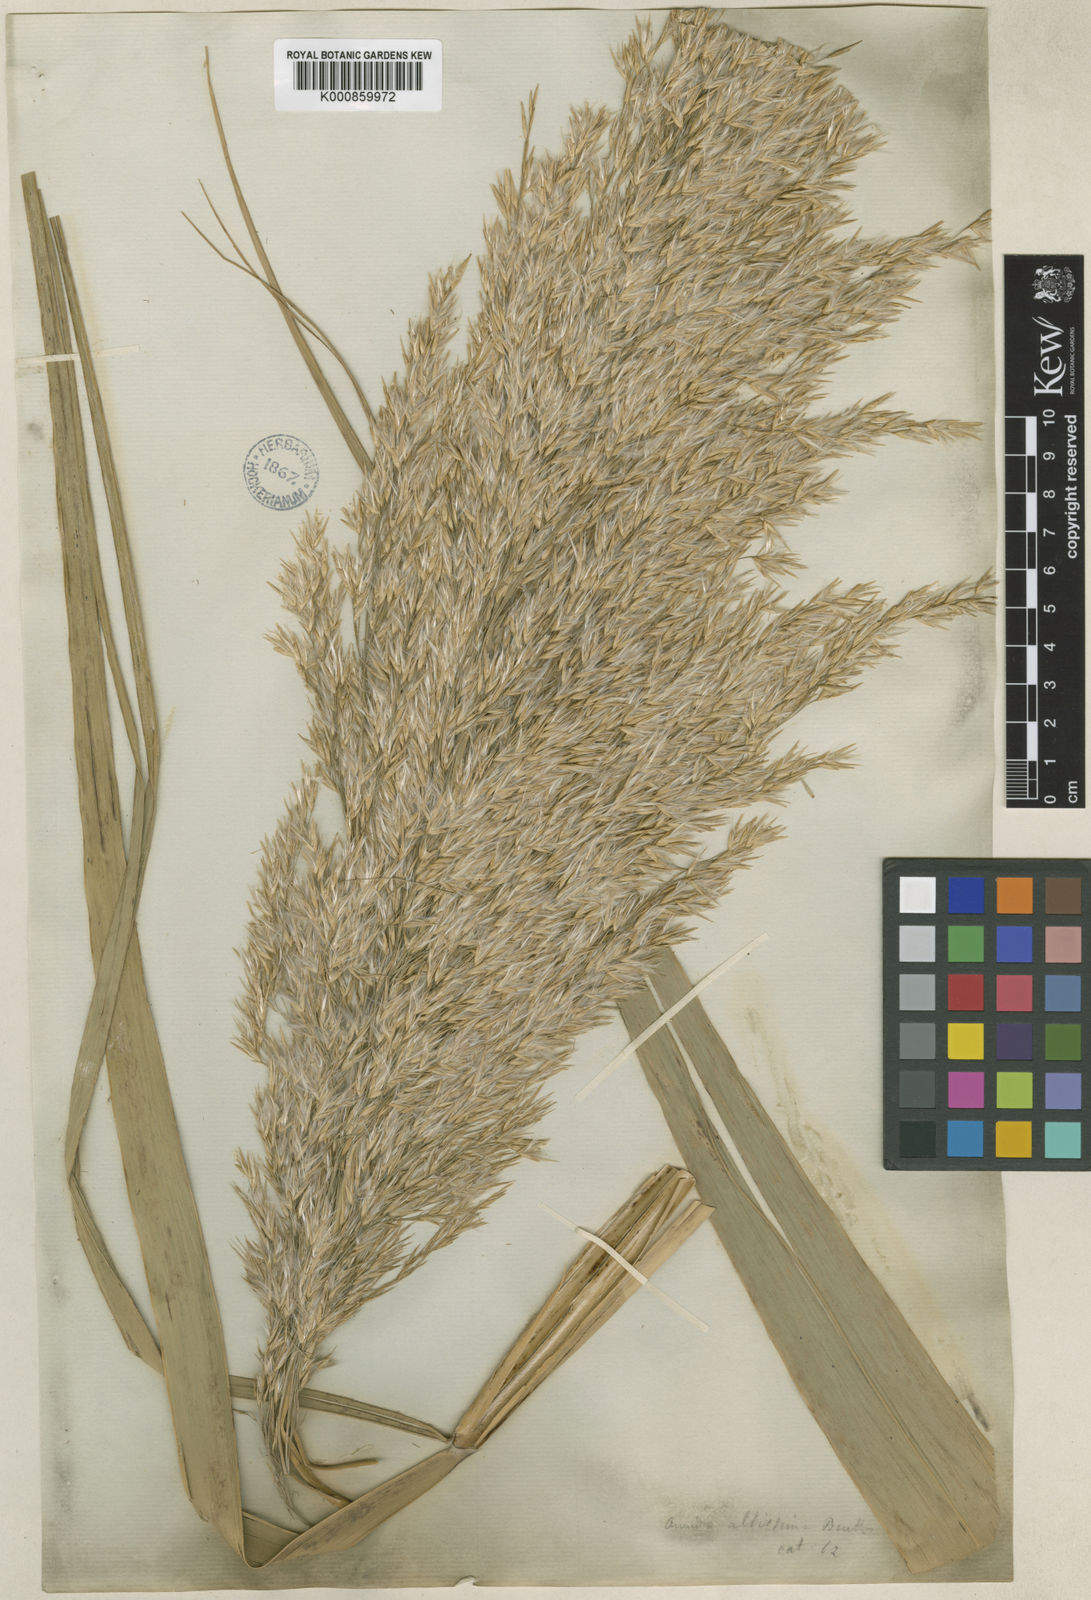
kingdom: Plantae
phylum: Tracheophyta
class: Liliopsida
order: Poales
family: Poaceae
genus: Phragmites
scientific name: Phragmites australis
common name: Common reed
